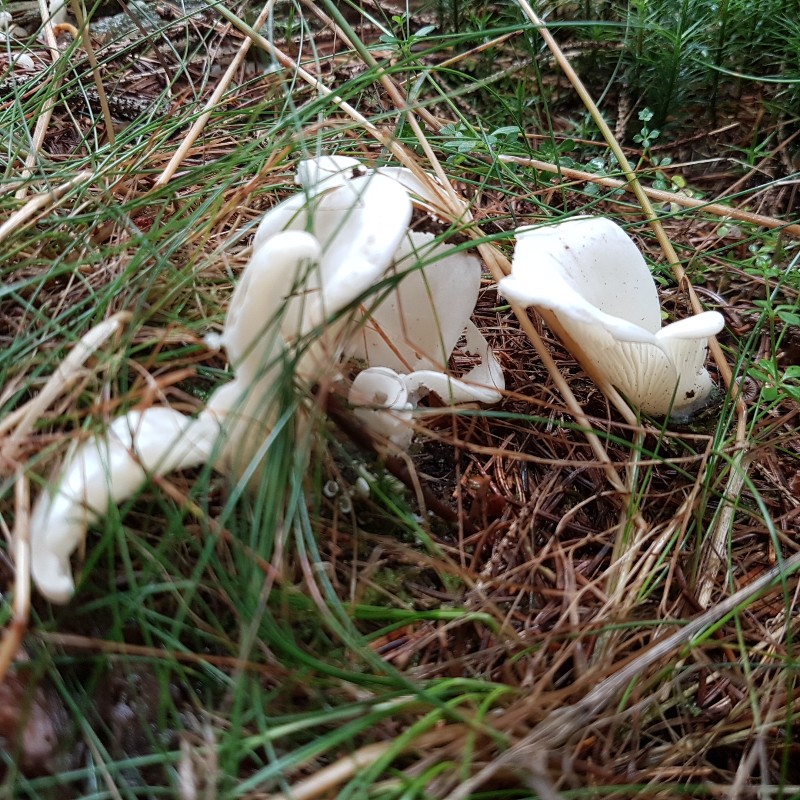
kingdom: Fungi
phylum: Basidiomycota
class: Agaricomycetes
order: Agaricales
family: Marasmiaceae
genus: Pleurocybella
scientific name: Pleurocybella porrigens
